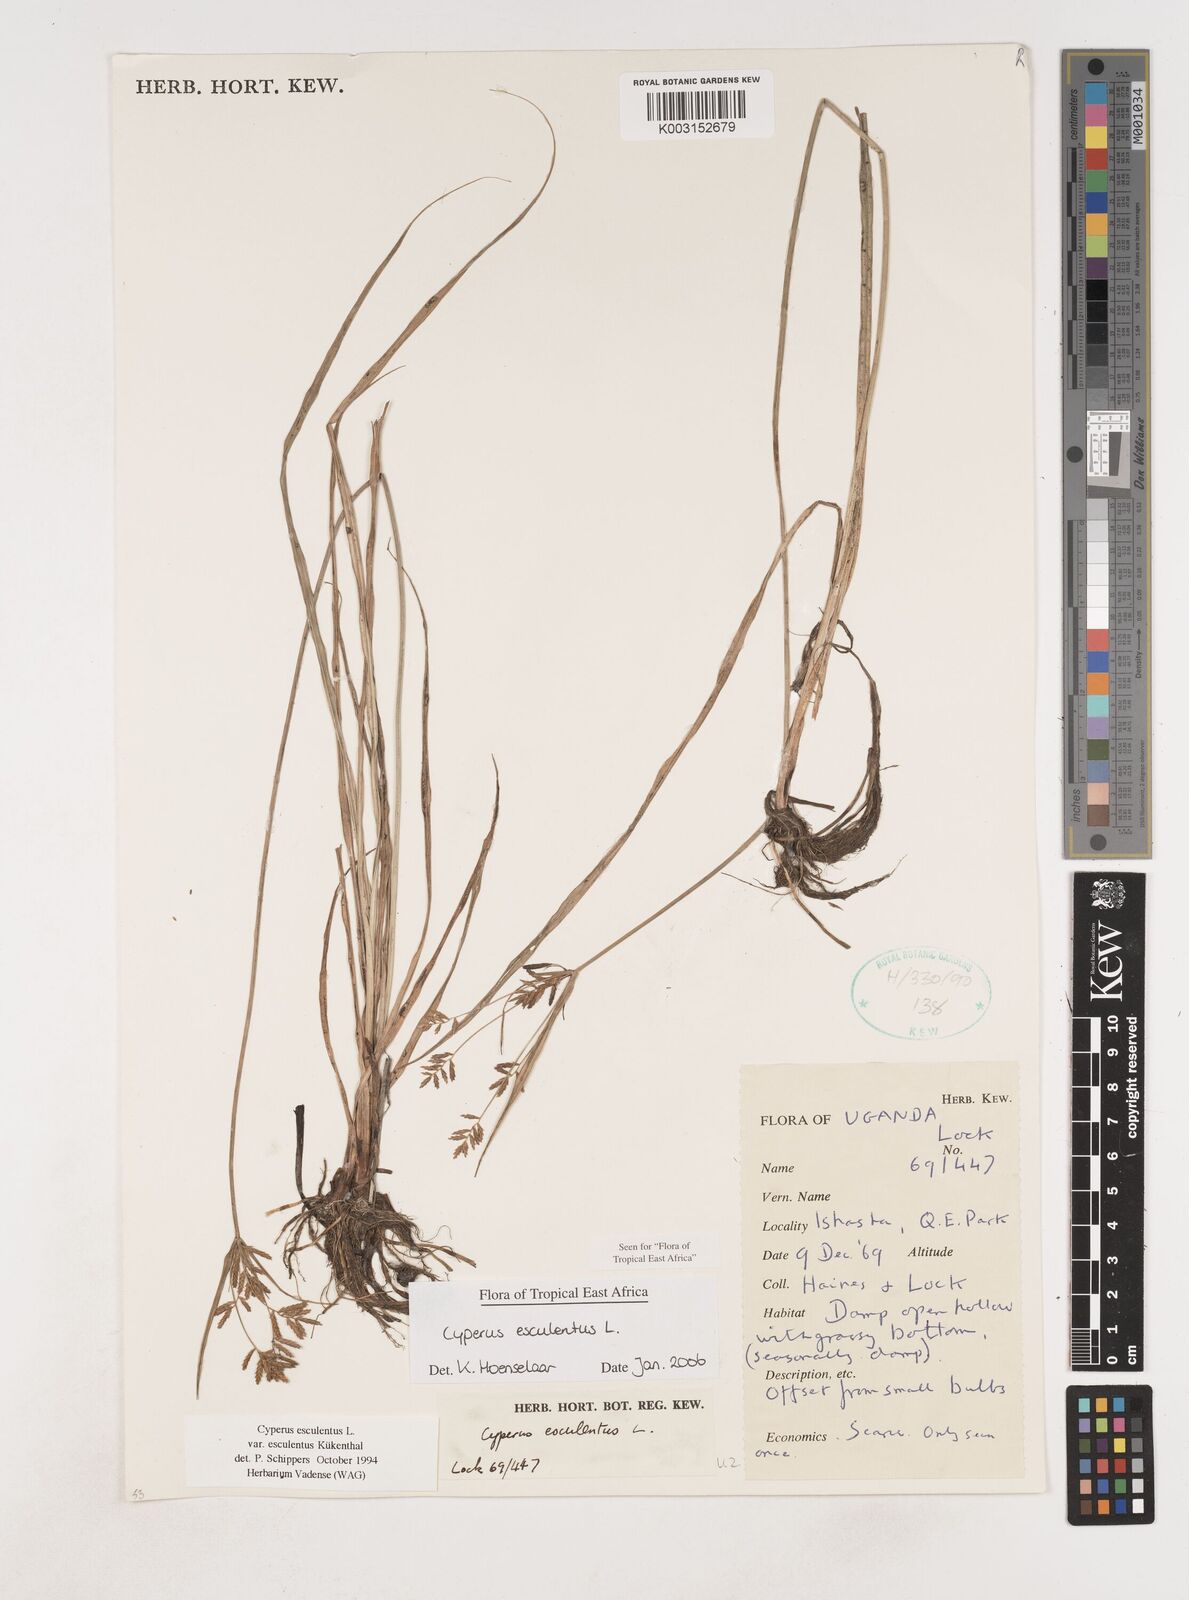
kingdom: Plantae
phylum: Tracheophyta
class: Liliopsida
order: Poales
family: Cyperaceae
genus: Cyperus
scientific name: Cyperus esculentus
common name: Yellow nutsedge
